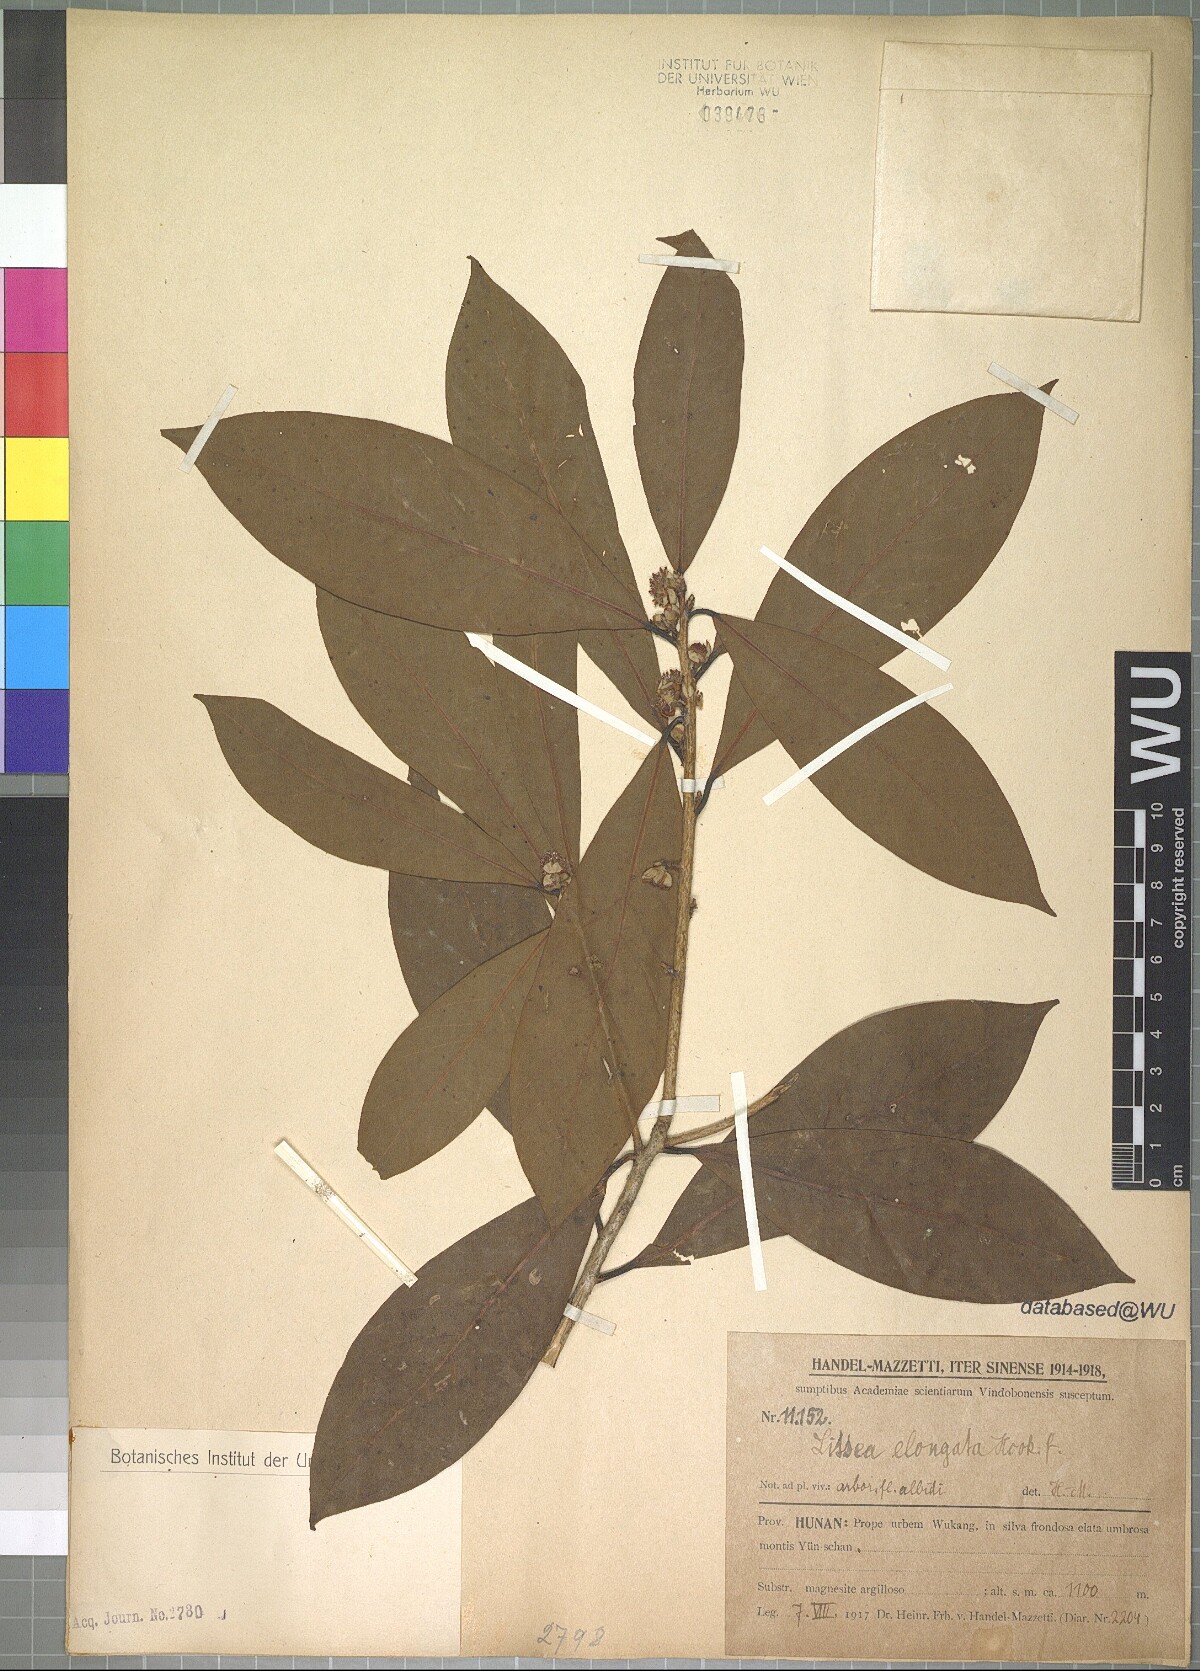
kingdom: Plantae
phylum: Tracheophyta
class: Magnoliopsida
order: Laurales
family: Lauraceae
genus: Litsea
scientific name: Litsea elongata
